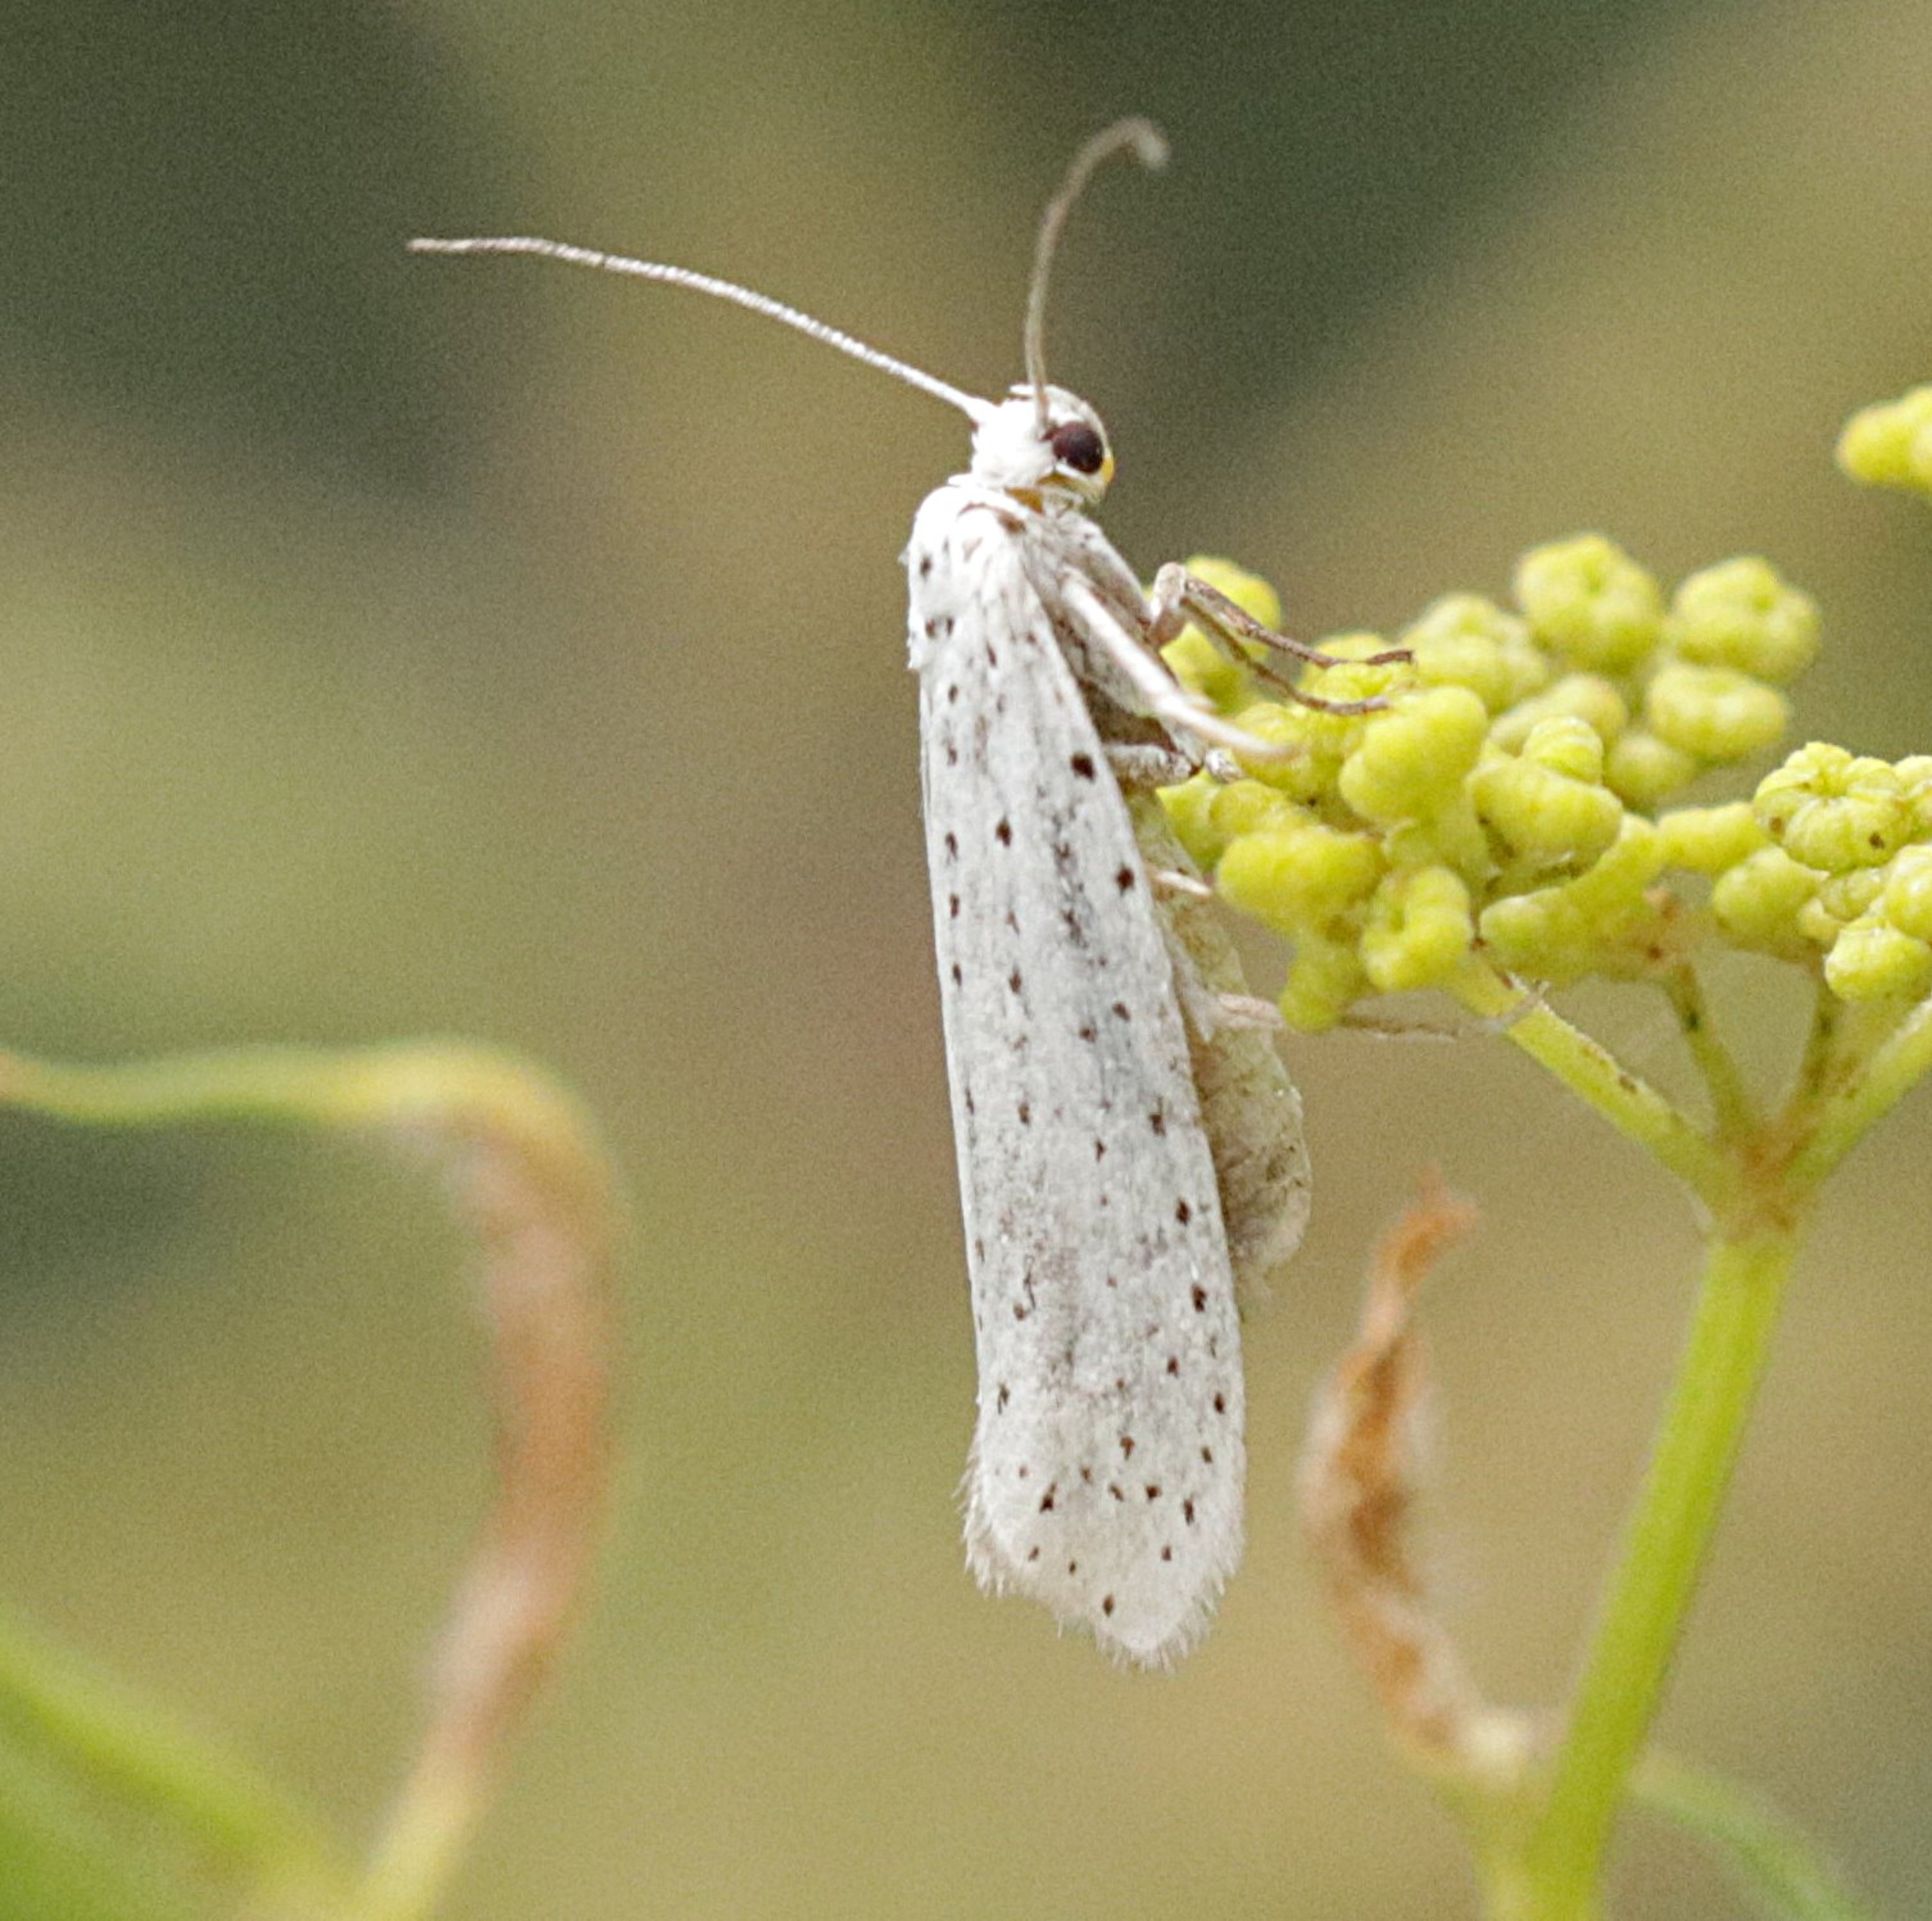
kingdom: Animalia
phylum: Arthropoda
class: Insecta
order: Lepidoptera
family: Yponomeutidae
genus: Yponomeuta
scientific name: Yponomeuta evonymella
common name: Hægspindemøl
